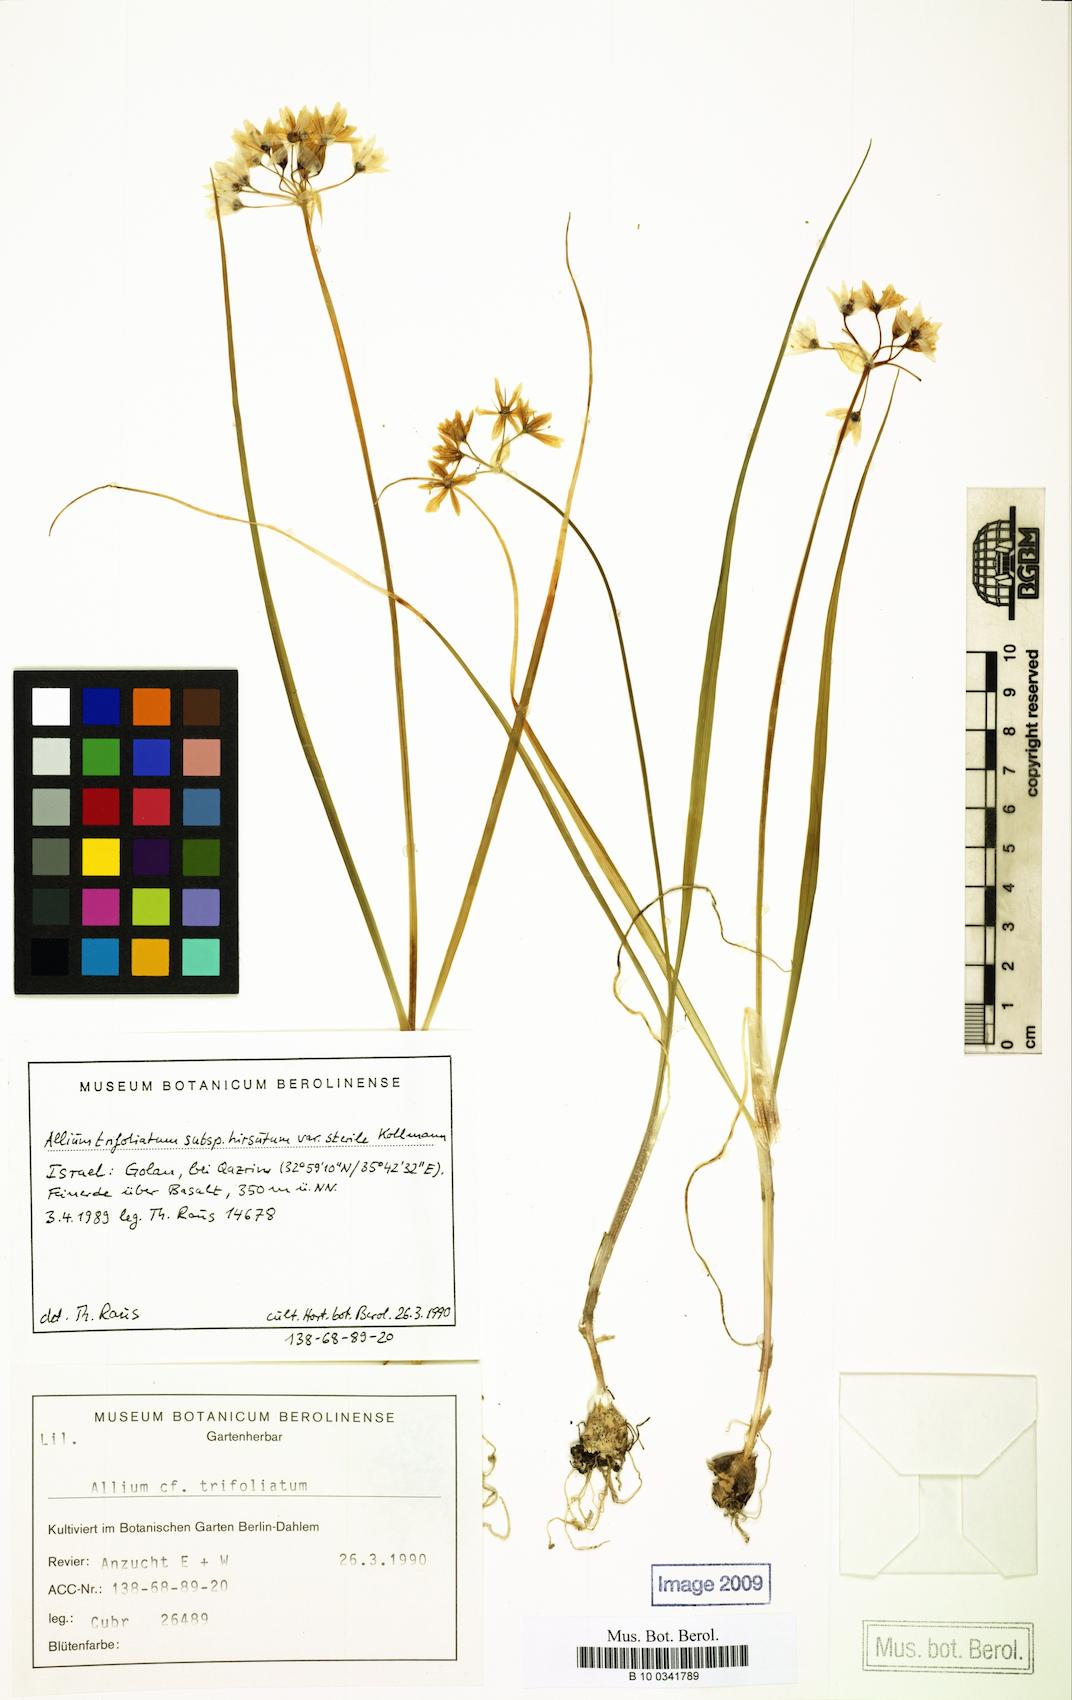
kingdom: Plantae
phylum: Tracheophyta
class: Liliopsida
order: Asparagales
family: Amaryllidaceae
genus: Allium
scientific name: Allium trifoliatum
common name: Pink garlic
